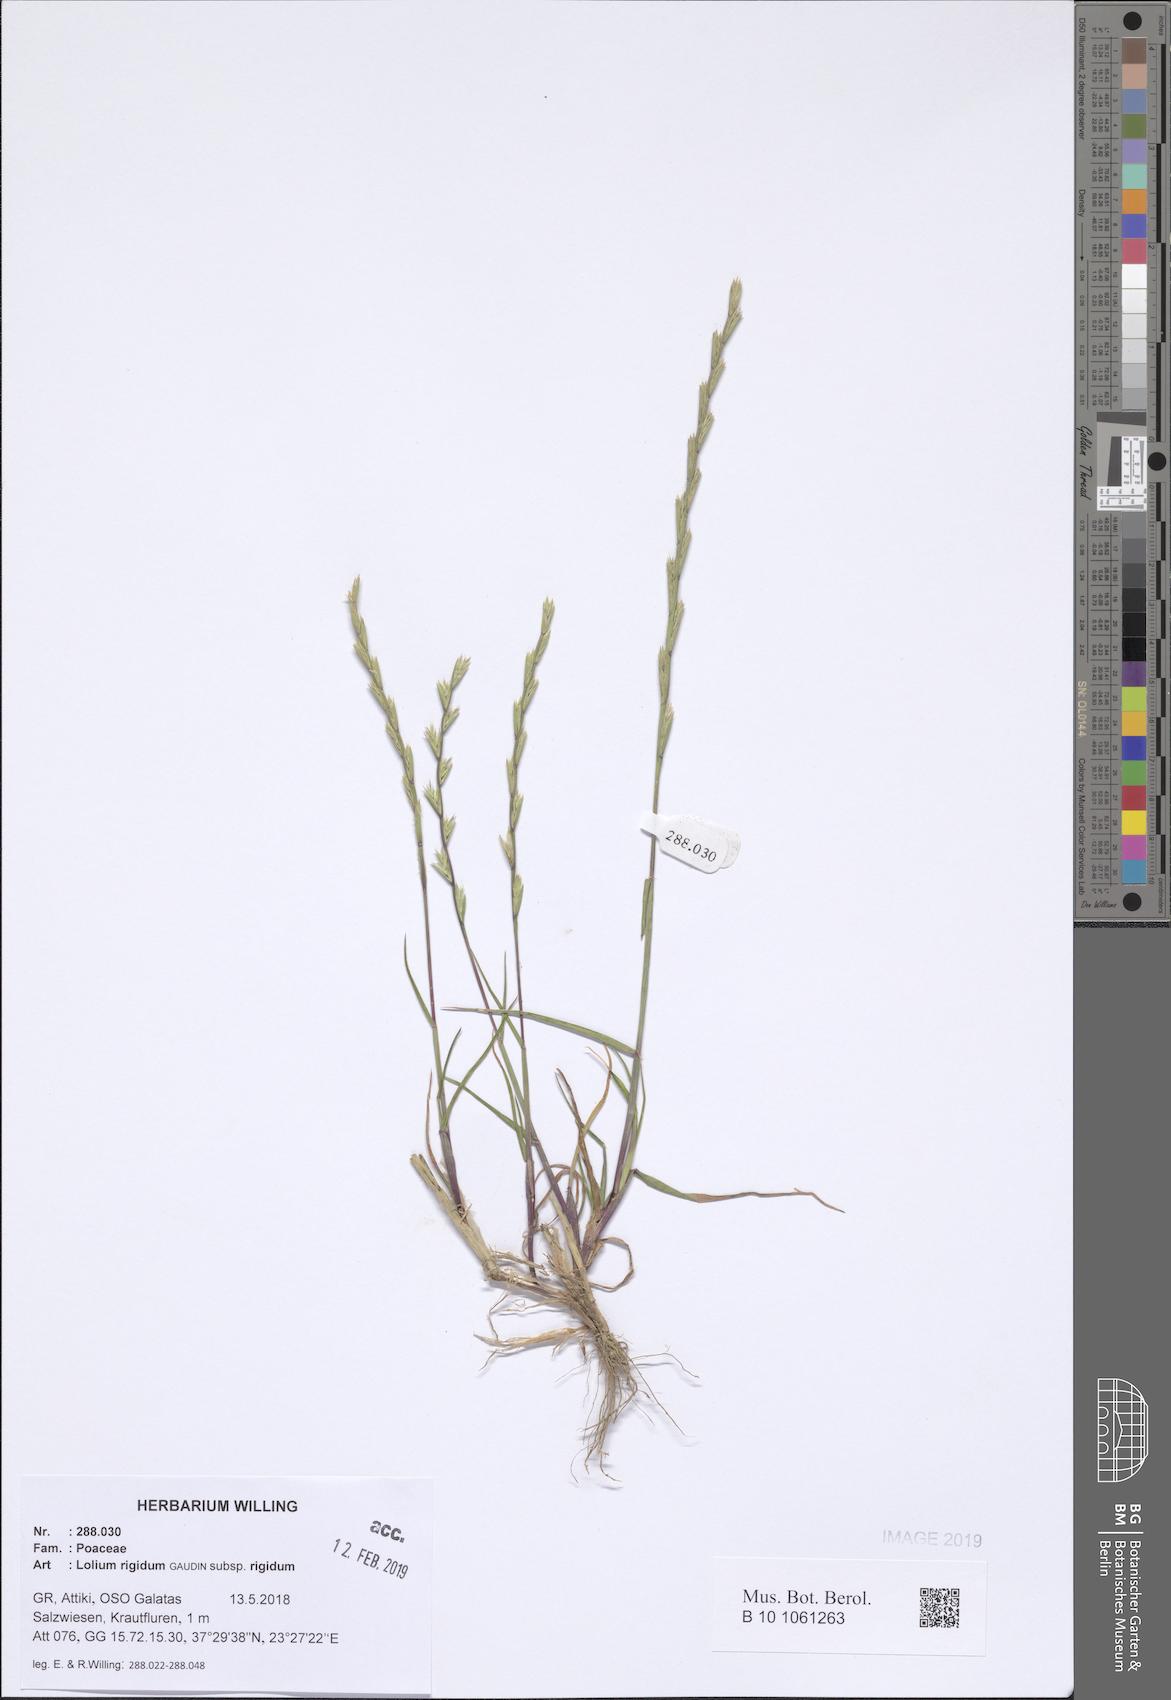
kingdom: Plantae
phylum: Tracheophyta
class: Liliopsida
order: Poales
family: Poaceae
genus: Lolium
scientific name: Lolium rigidum
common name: Wimmera ryegrass
